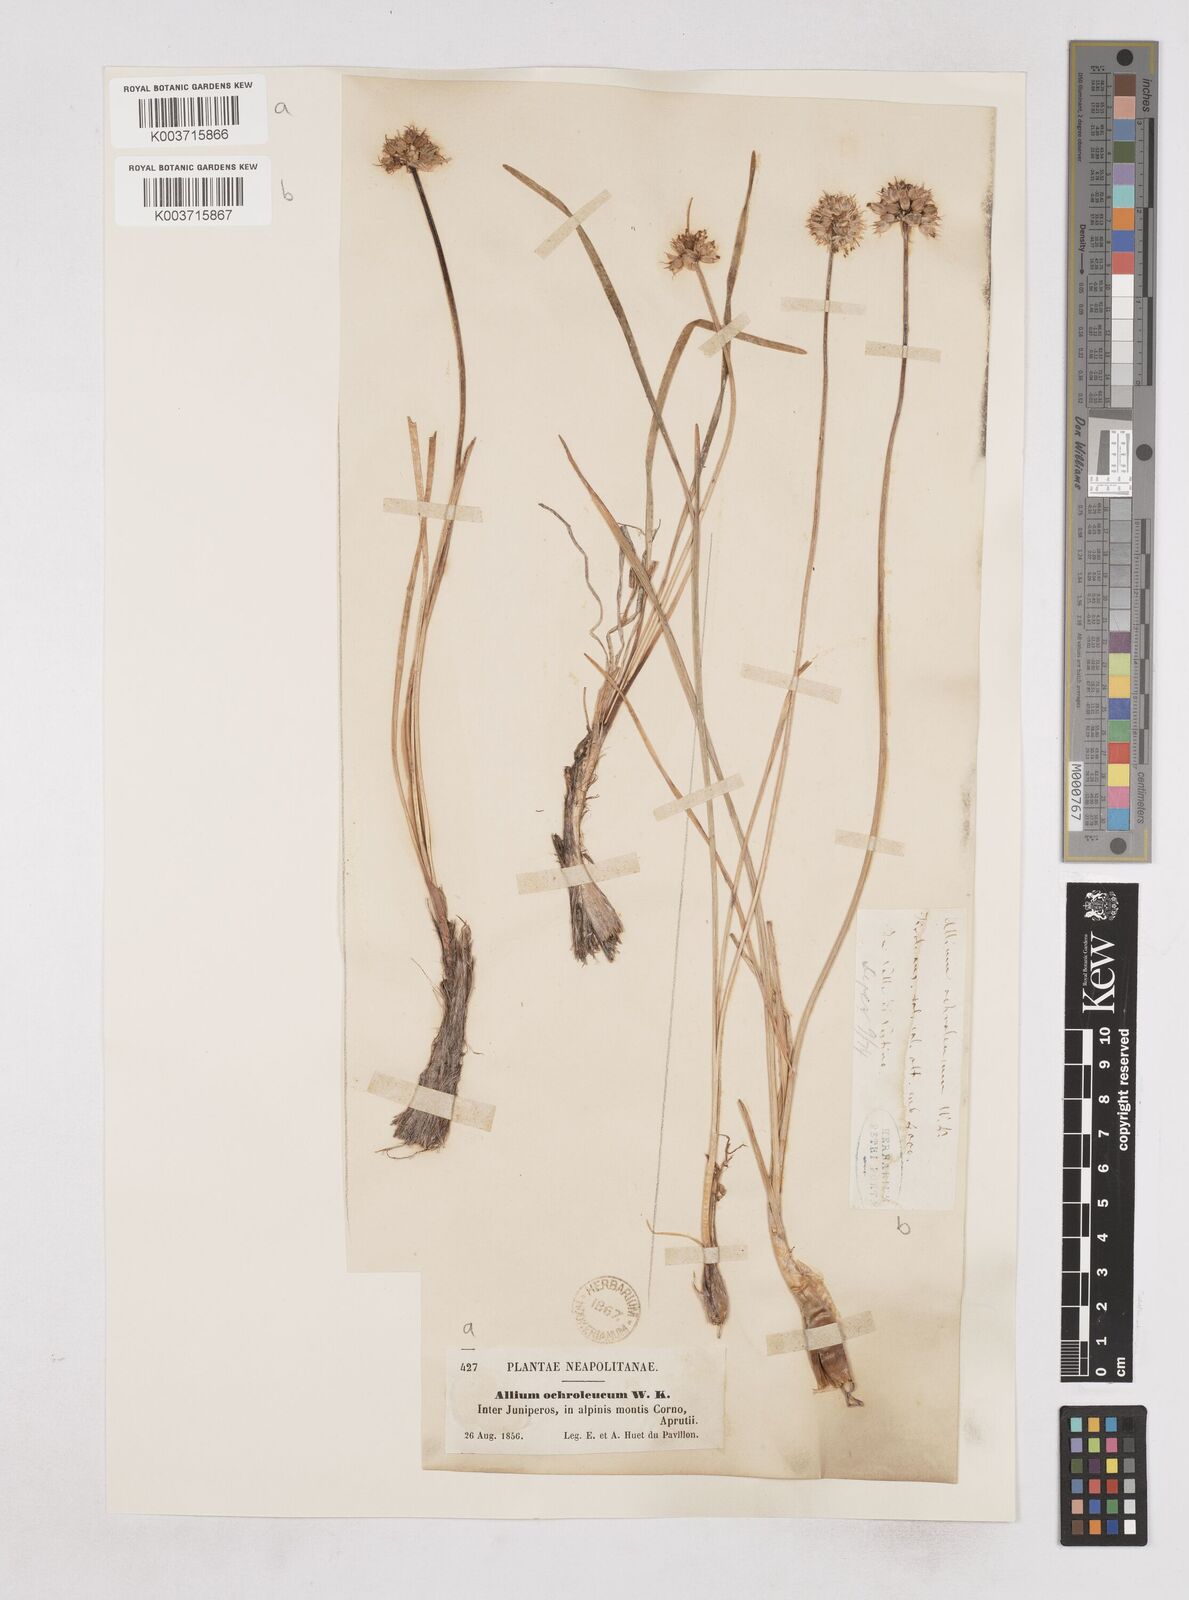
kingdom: Plantae
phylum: Tracheophyta
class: Liliopsida
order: Asparagales
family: Amaryllidaceae
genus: Allium
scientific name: Allium ericetorum
